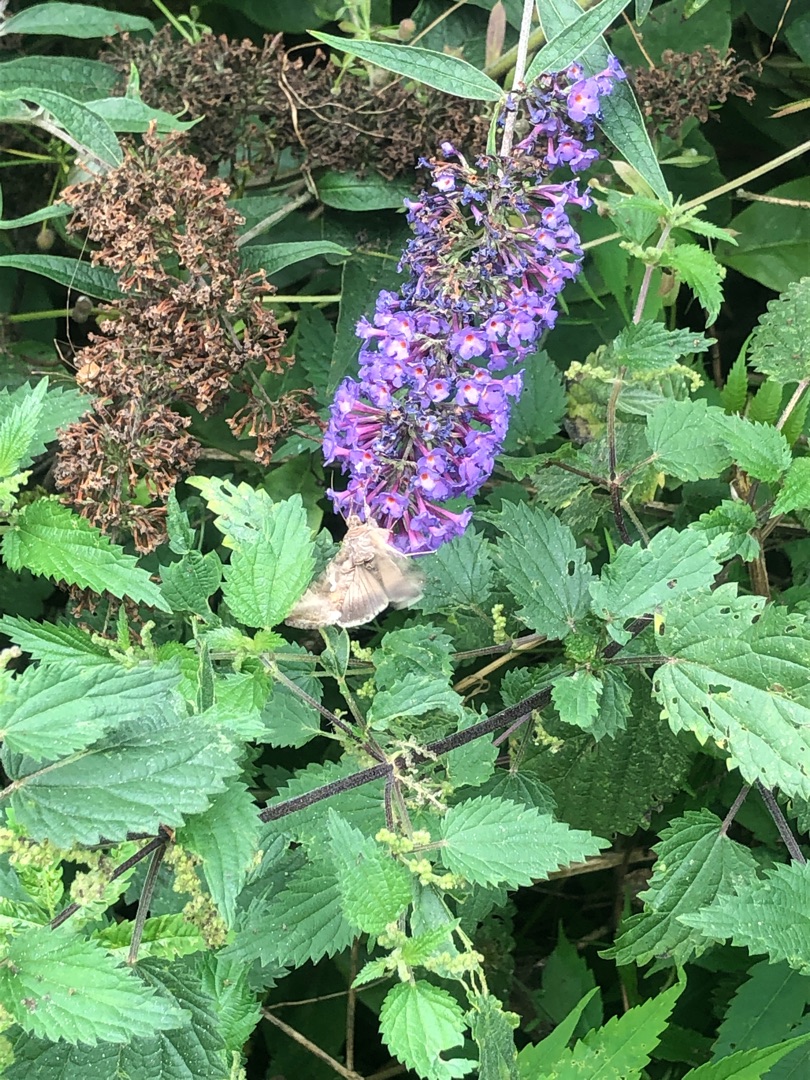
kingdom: Animalia
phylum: Arthropoda
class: Insecta
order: Lepidoptera
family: Noctuidae
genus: Autographa
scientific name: Autographa gamma
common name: Gammaugle
